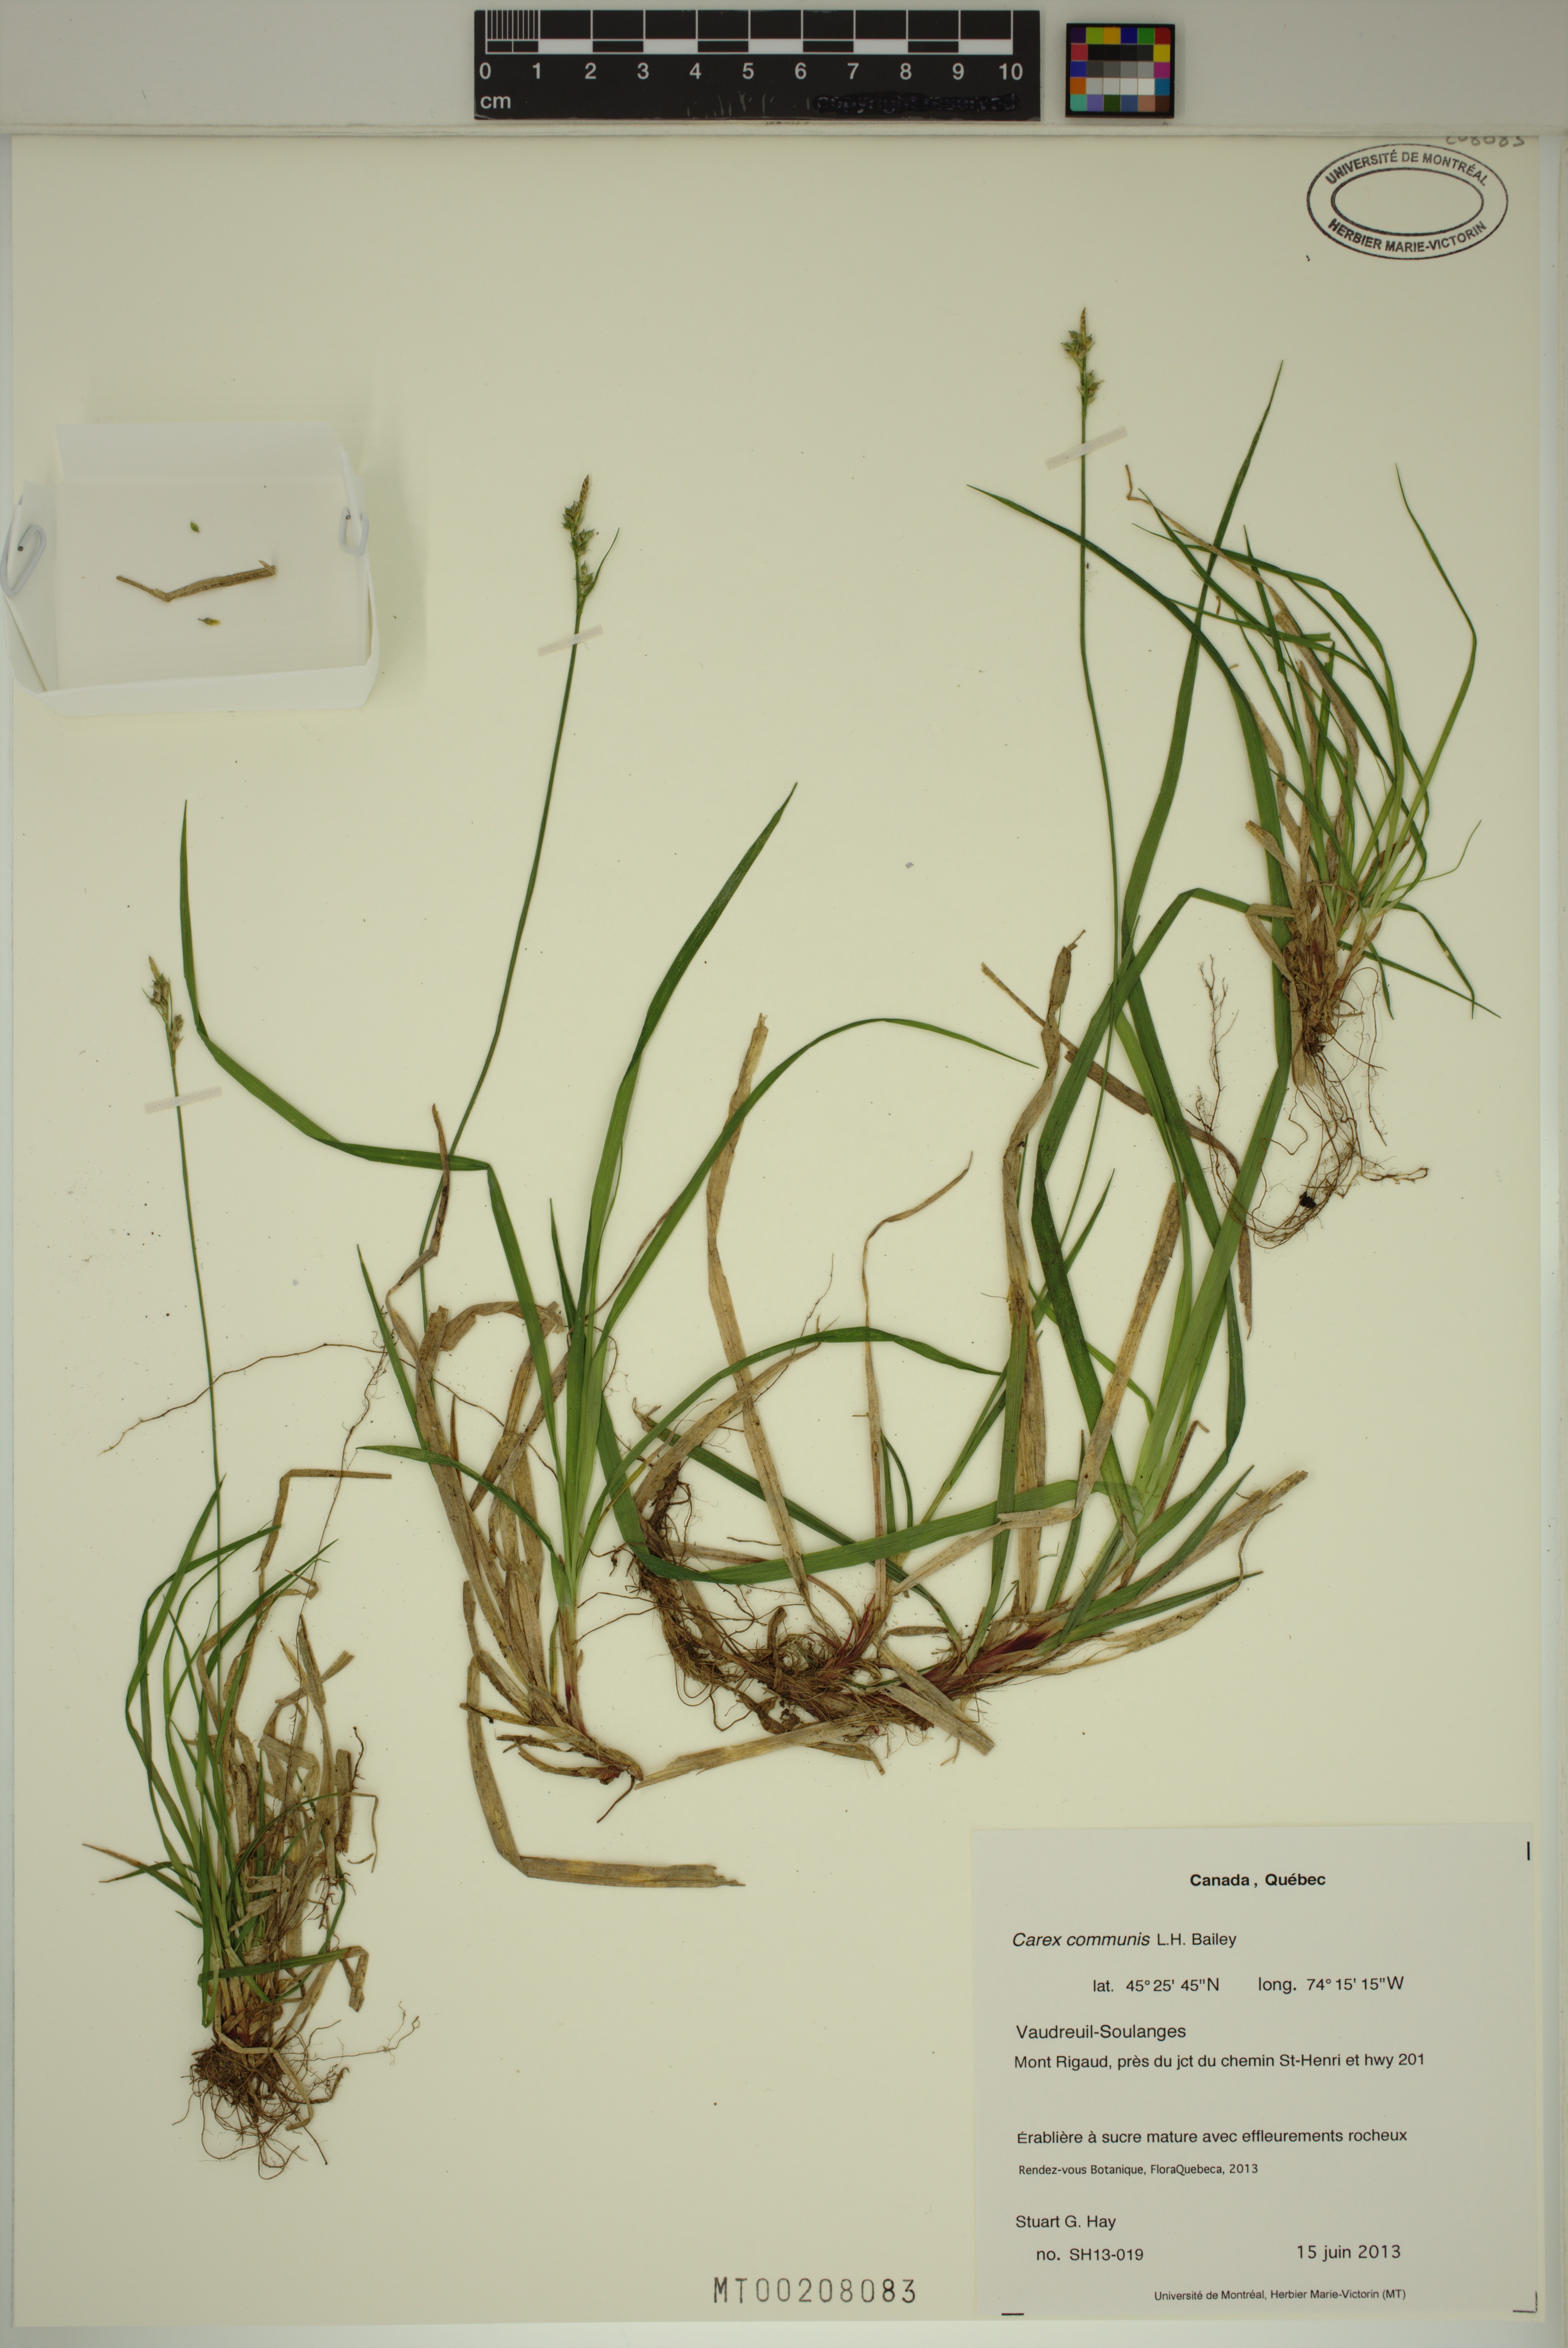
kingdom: Plantae
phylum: Tracheophyta
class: Liliopsida
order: Poales
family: Cyperaceae
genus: Carex
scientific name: Carex communis
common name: Colonial oak sedge
